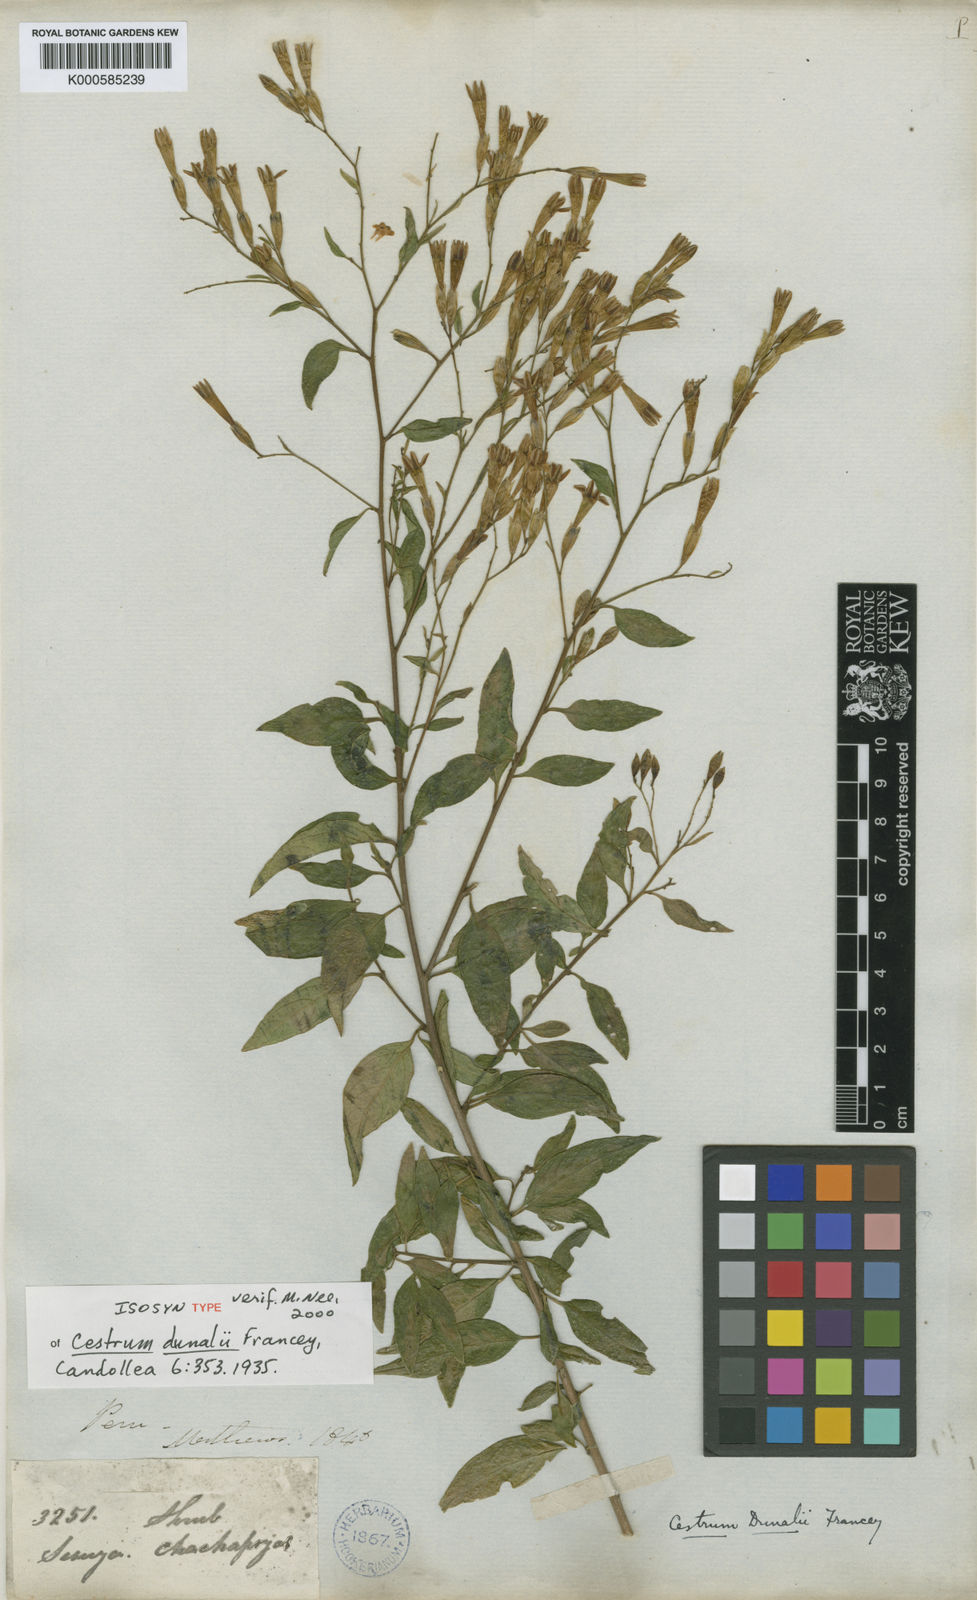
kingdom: Plantae
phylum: Tracheophyta
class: Magnoliopsida
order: Solanales
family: Solanaceae
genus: Cestrum
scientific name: Cestrum dunalii
